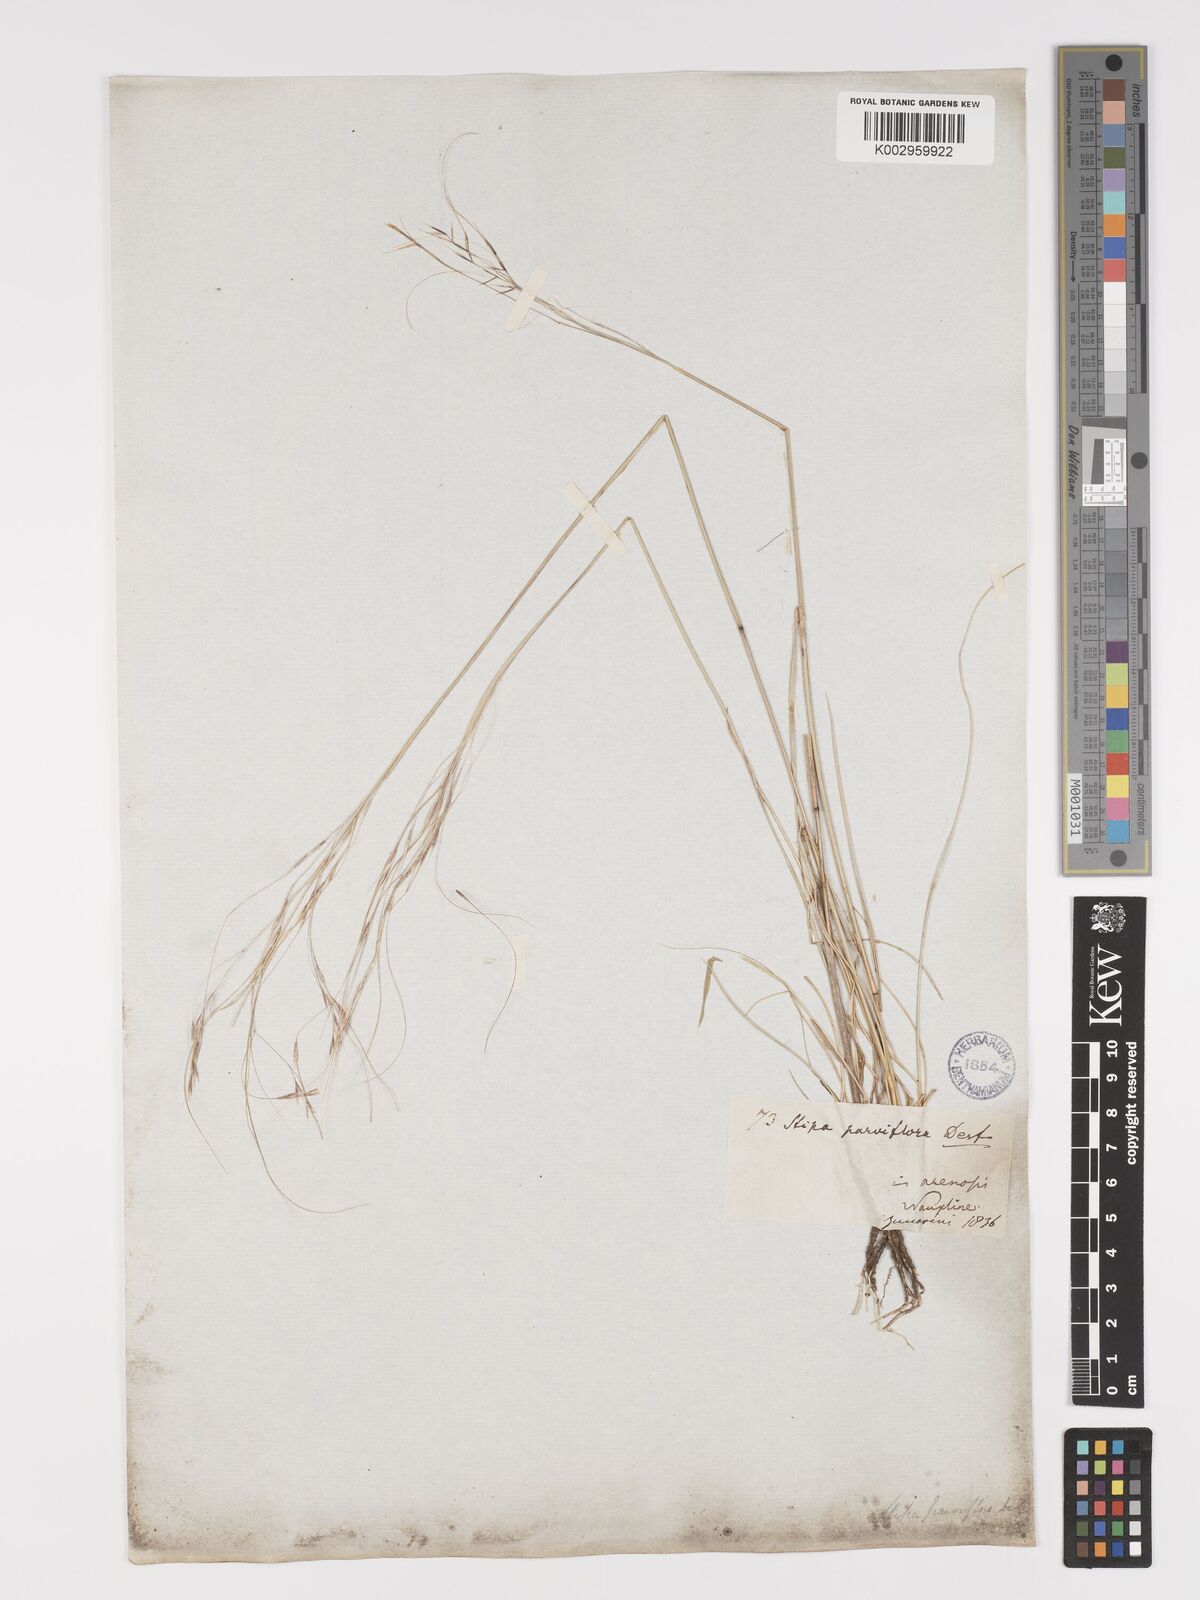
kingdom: Plantae
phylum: Tracheophyta
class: Liliopsida
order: Poales
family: Poaceae
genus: Stipa
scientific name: Stipa
